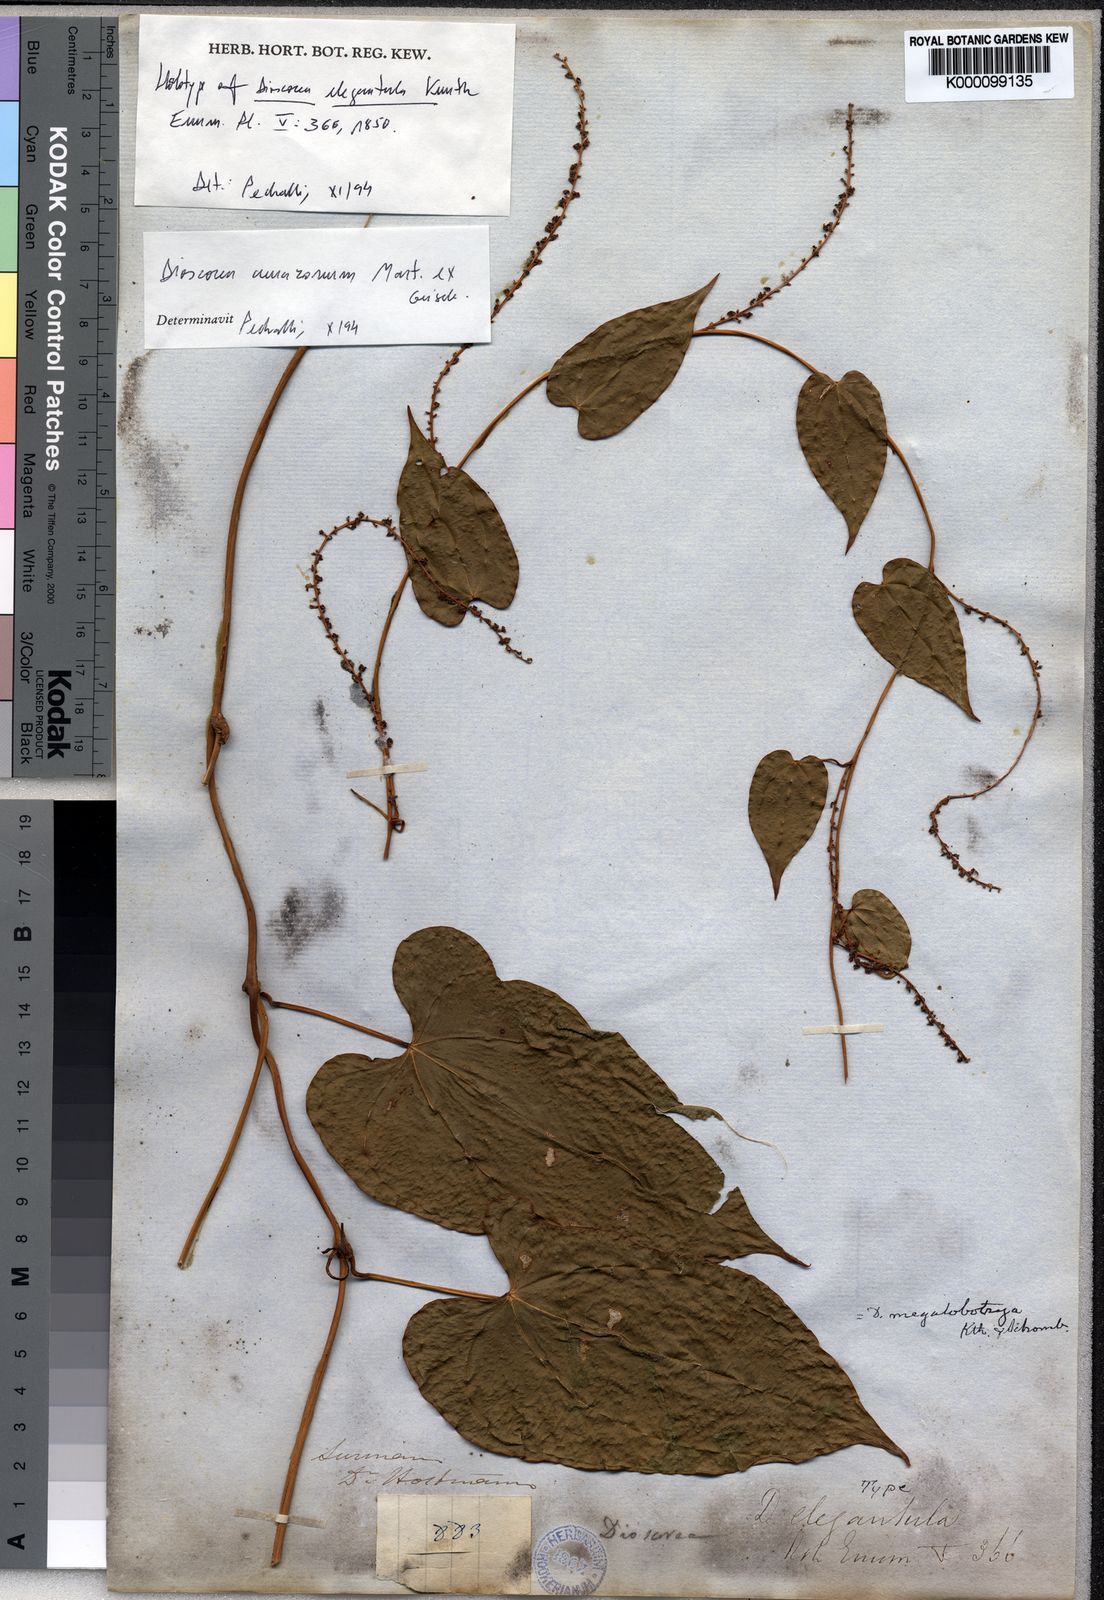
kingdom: Plantae
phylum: Tracheophyta
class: Liliopsida
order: Dioscoreales
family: Dioscoreaceae
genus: Dioscorea
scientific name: Dioscorea amazonum
